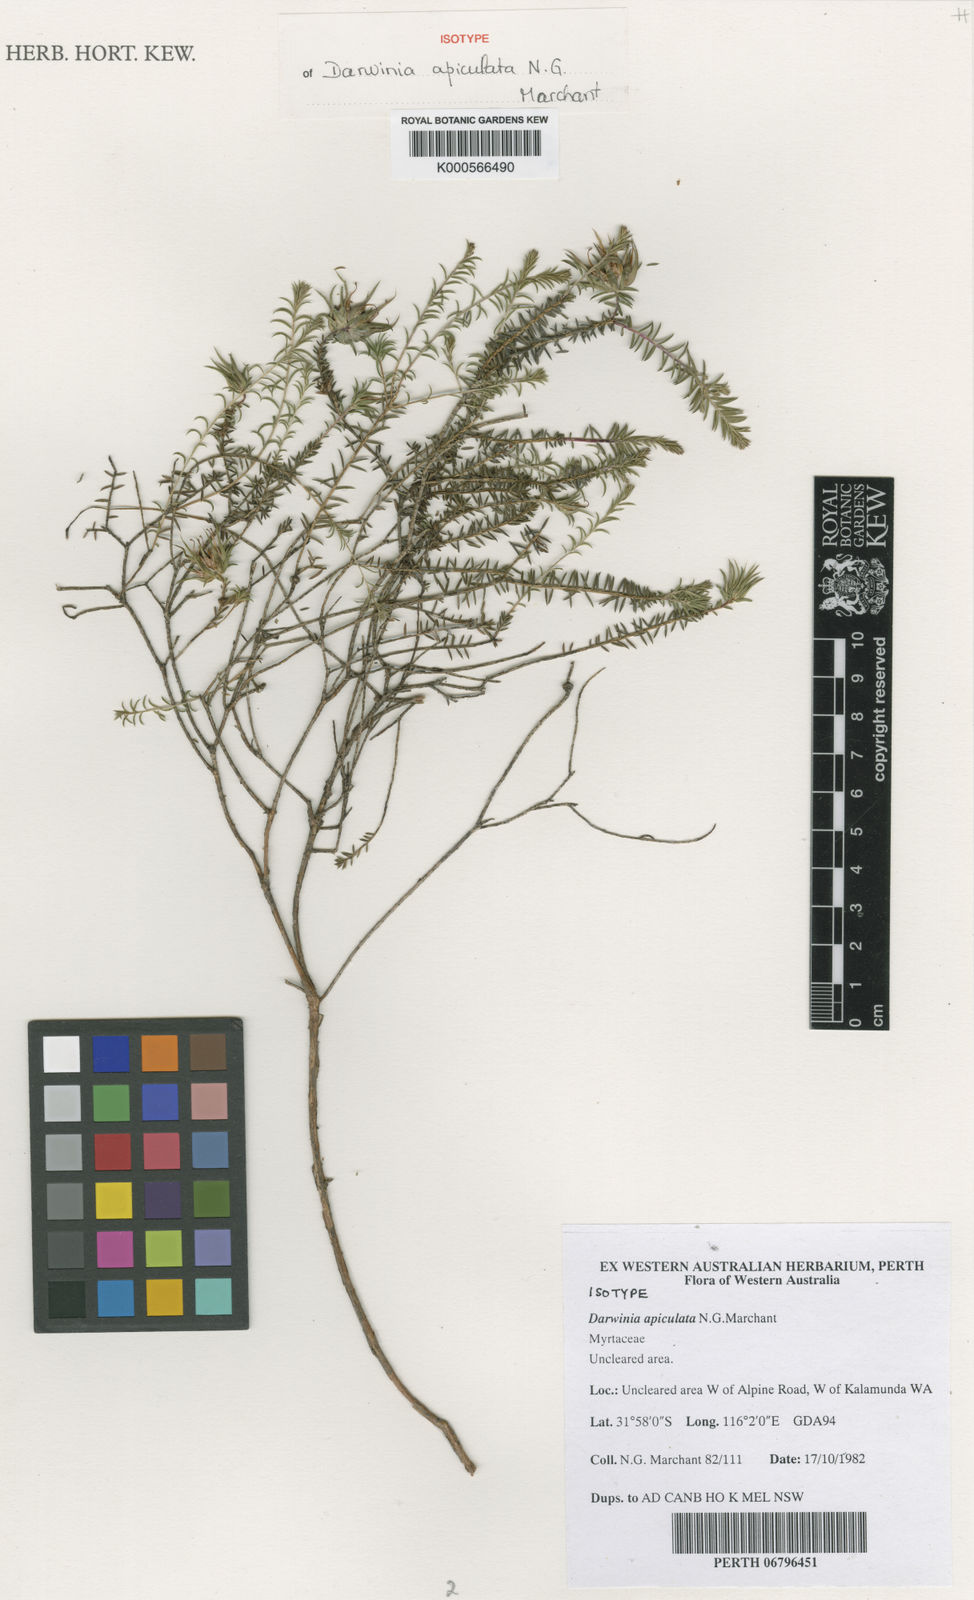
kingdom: Plantae
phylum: Tracheophyta
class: Magnoliopsida
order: Myrtales
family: Myrtaceae
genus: Darwinia
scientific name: Darwinia apiculata
